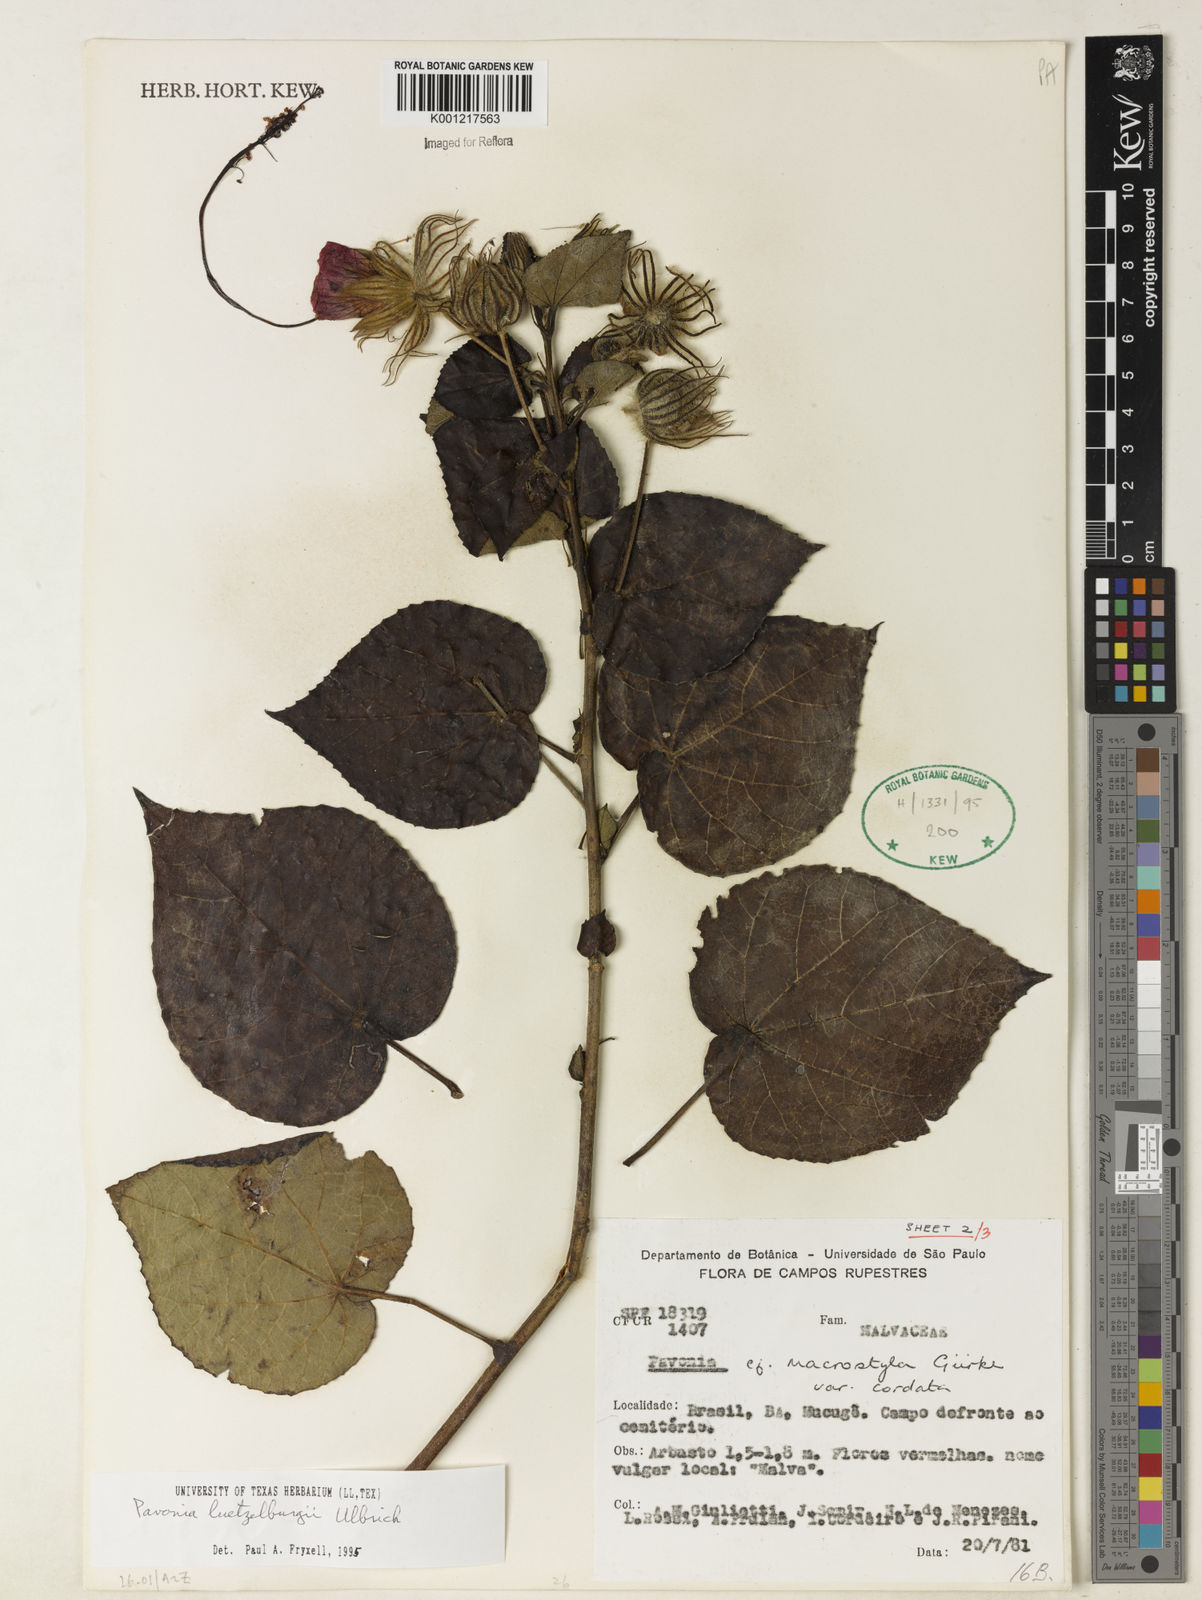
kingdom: Plantae
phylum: Tracheophyta
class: Magnoliopsida
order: Malvales
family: Malvaceae
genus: Pavonia
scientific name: Pavonia luetzelburgii
